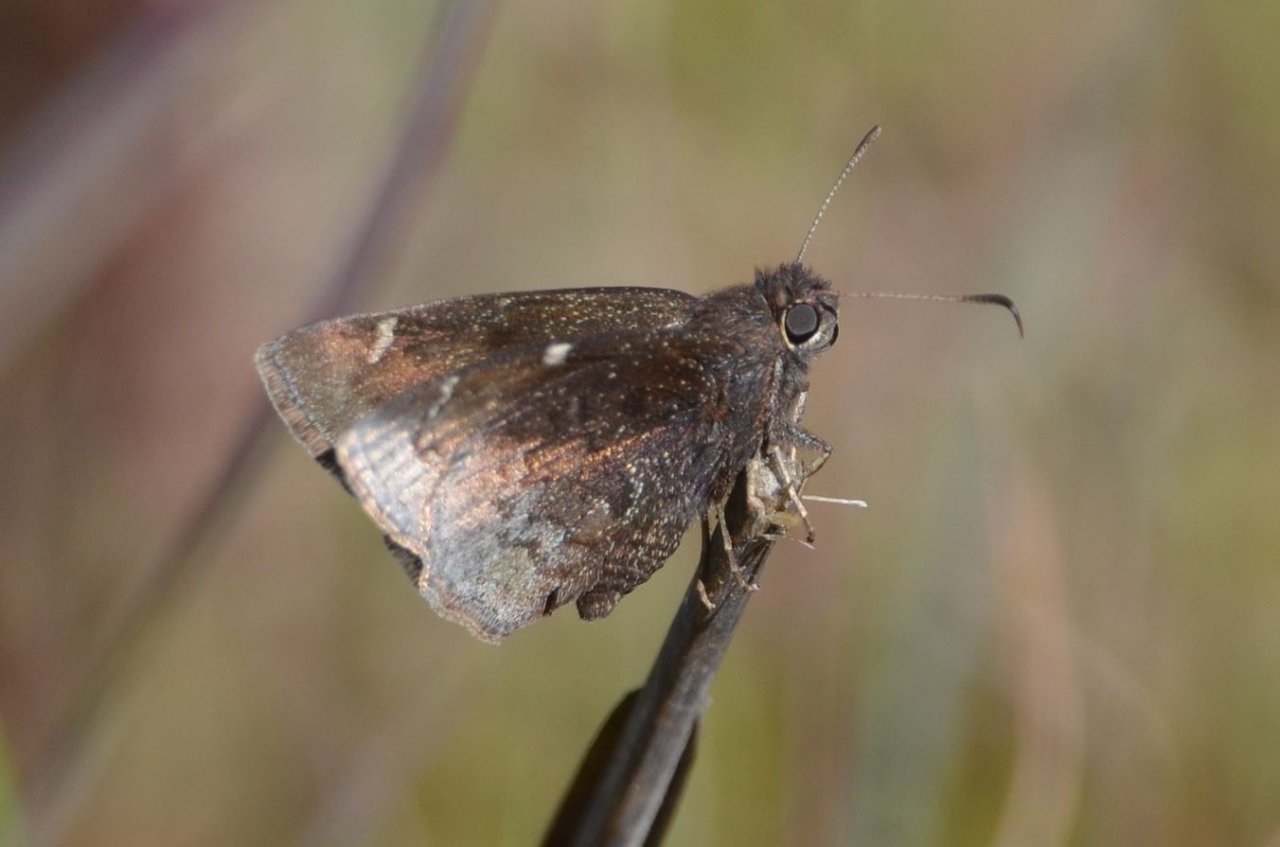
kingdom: Animalia
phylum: Arthropoda
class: Insecta
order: Lepidoptera
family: Hesperiidae
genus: Thorybes
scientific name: Thorybes mexicana
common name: Confused Cloudywing
